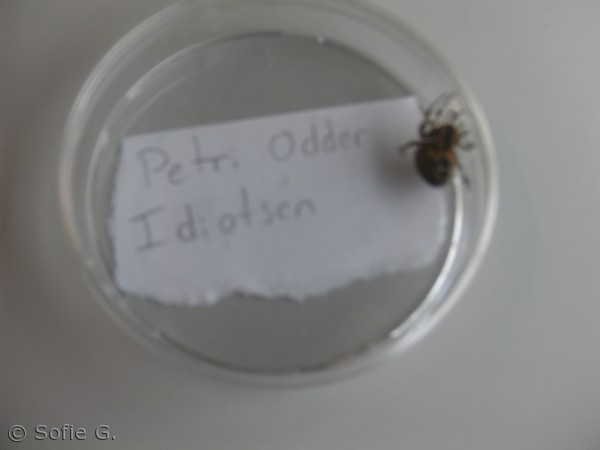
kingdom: Animalia
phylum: Arthropoda
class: Arachnida
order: Araneae
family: Araneidae
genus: Araneus
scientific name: Araneus diadematus
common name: Korsedderkop
